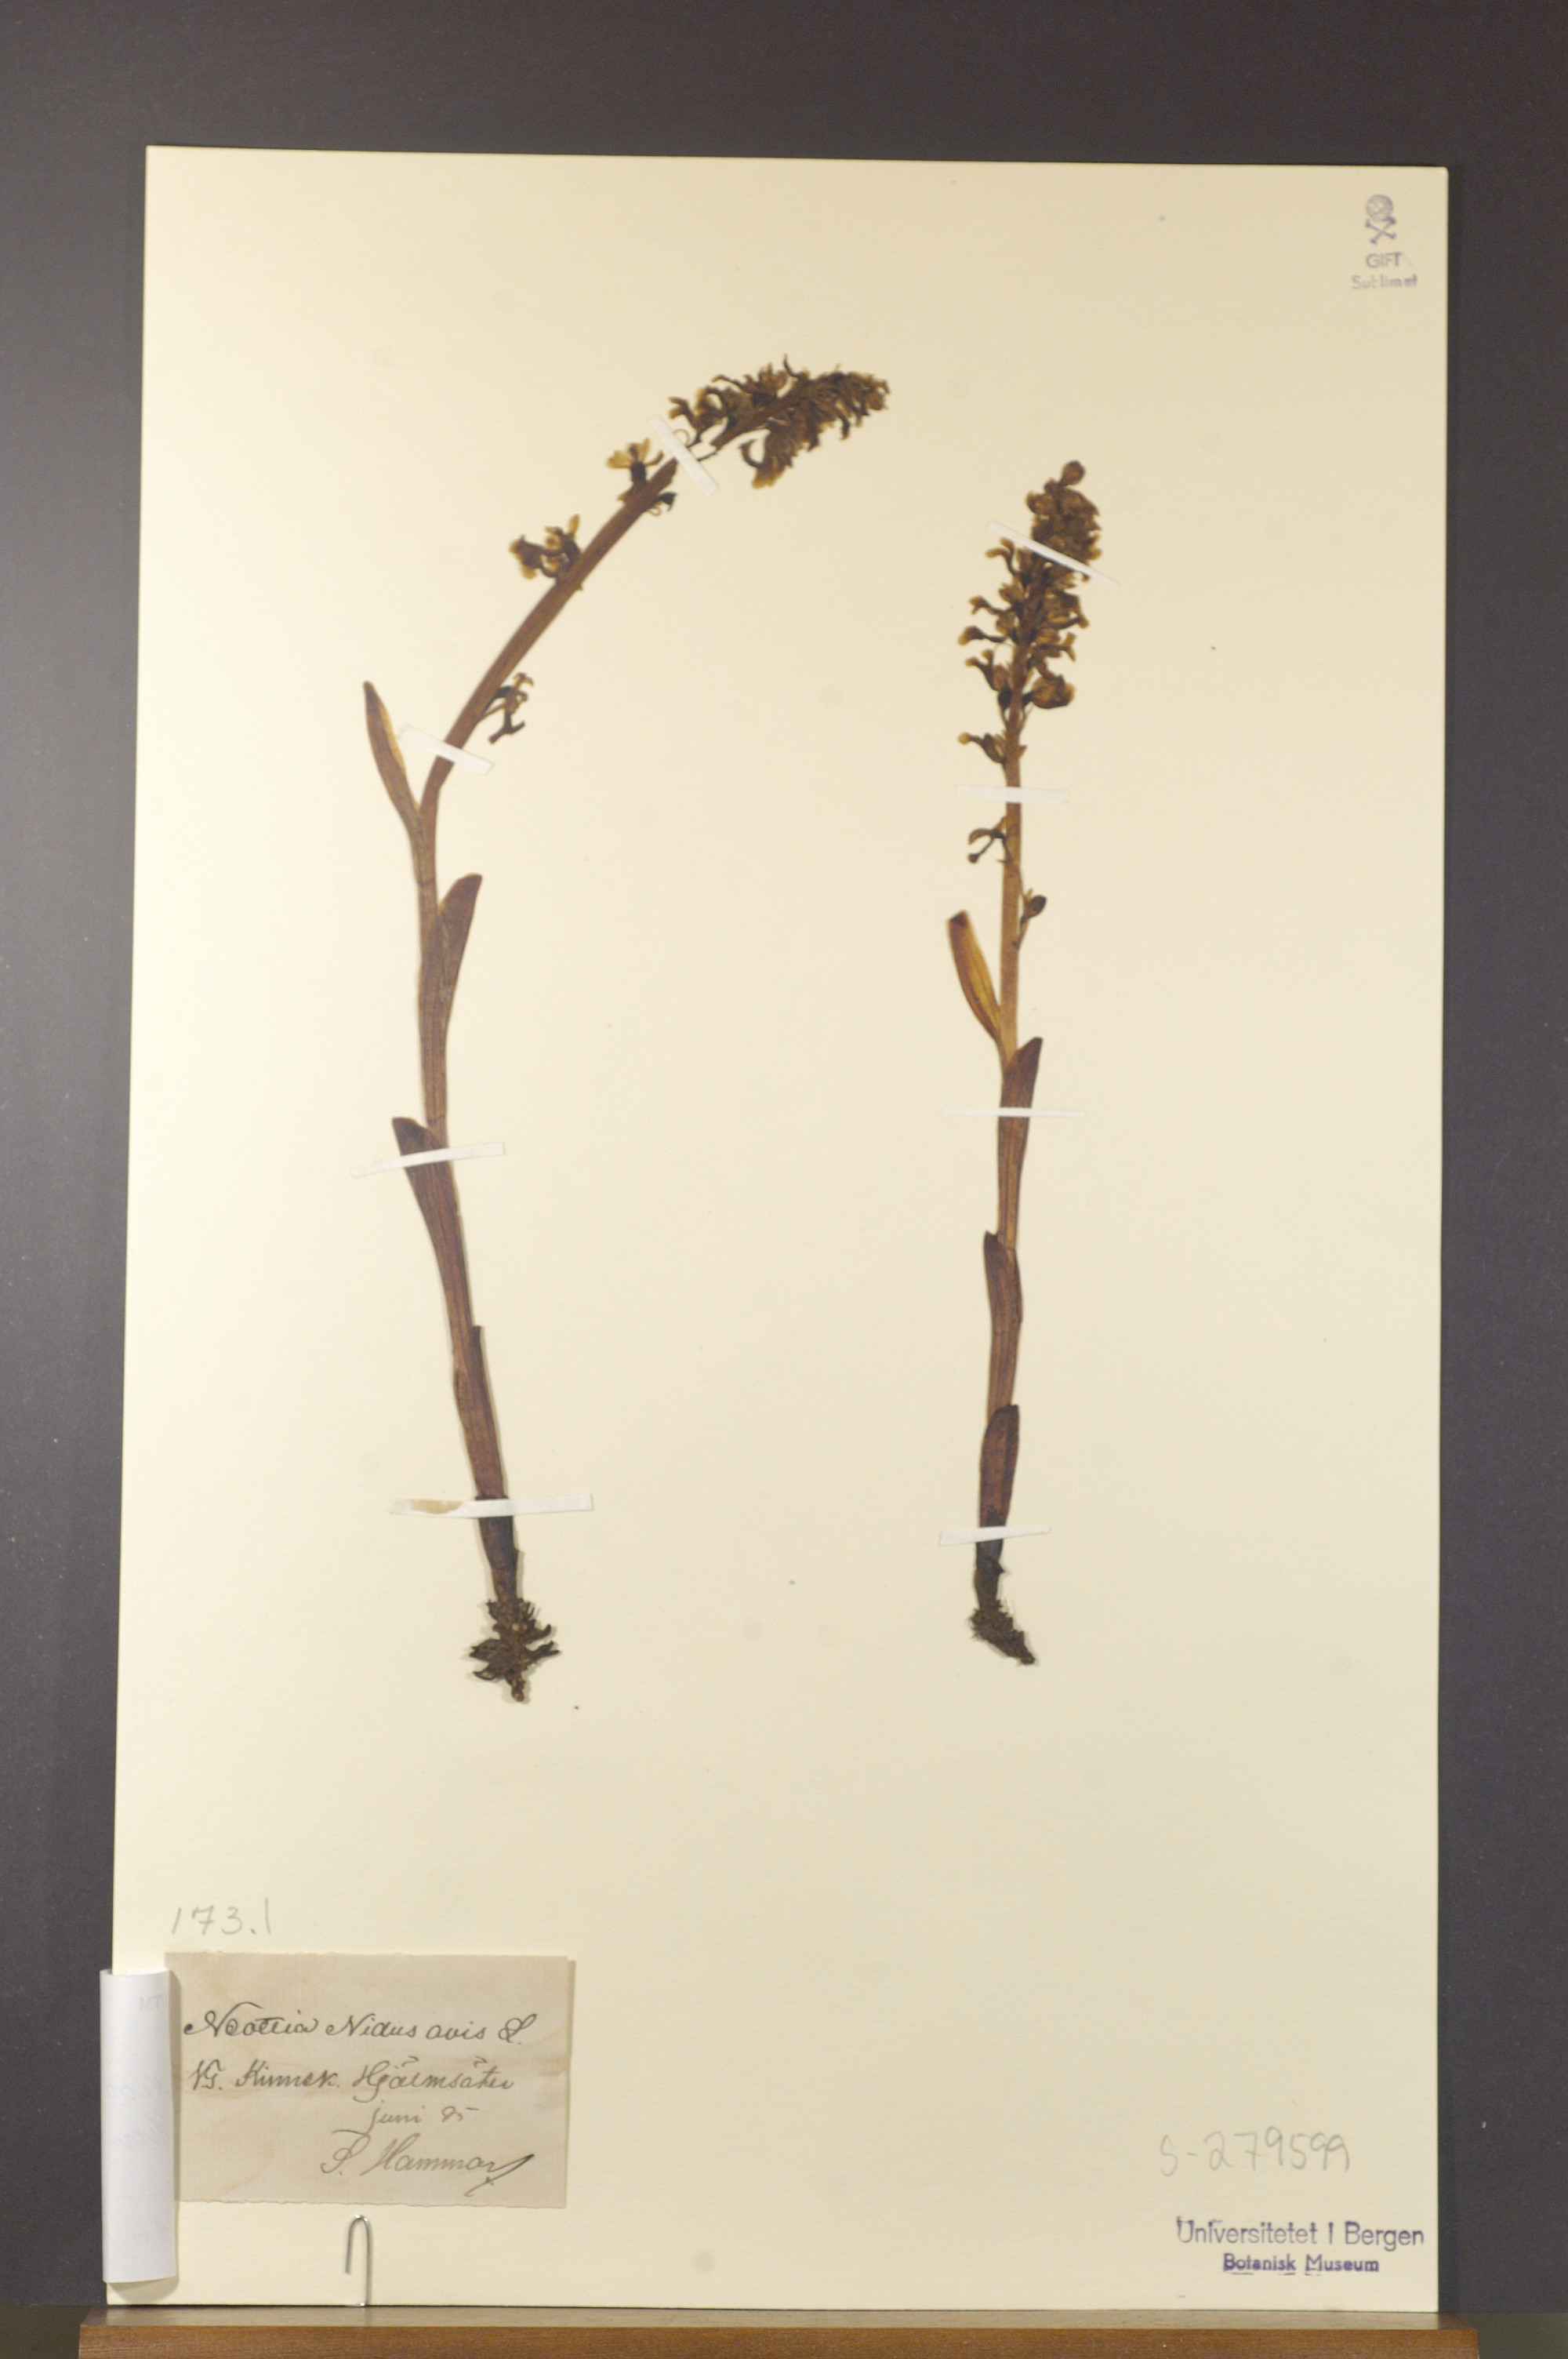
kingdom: Plantae
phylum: Tracheophyta
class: Liliopsida
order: Asparagales
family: Orchidaceae
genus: Neottia
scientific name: Neottia nidus-avis
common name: Bird's-nest orchid
